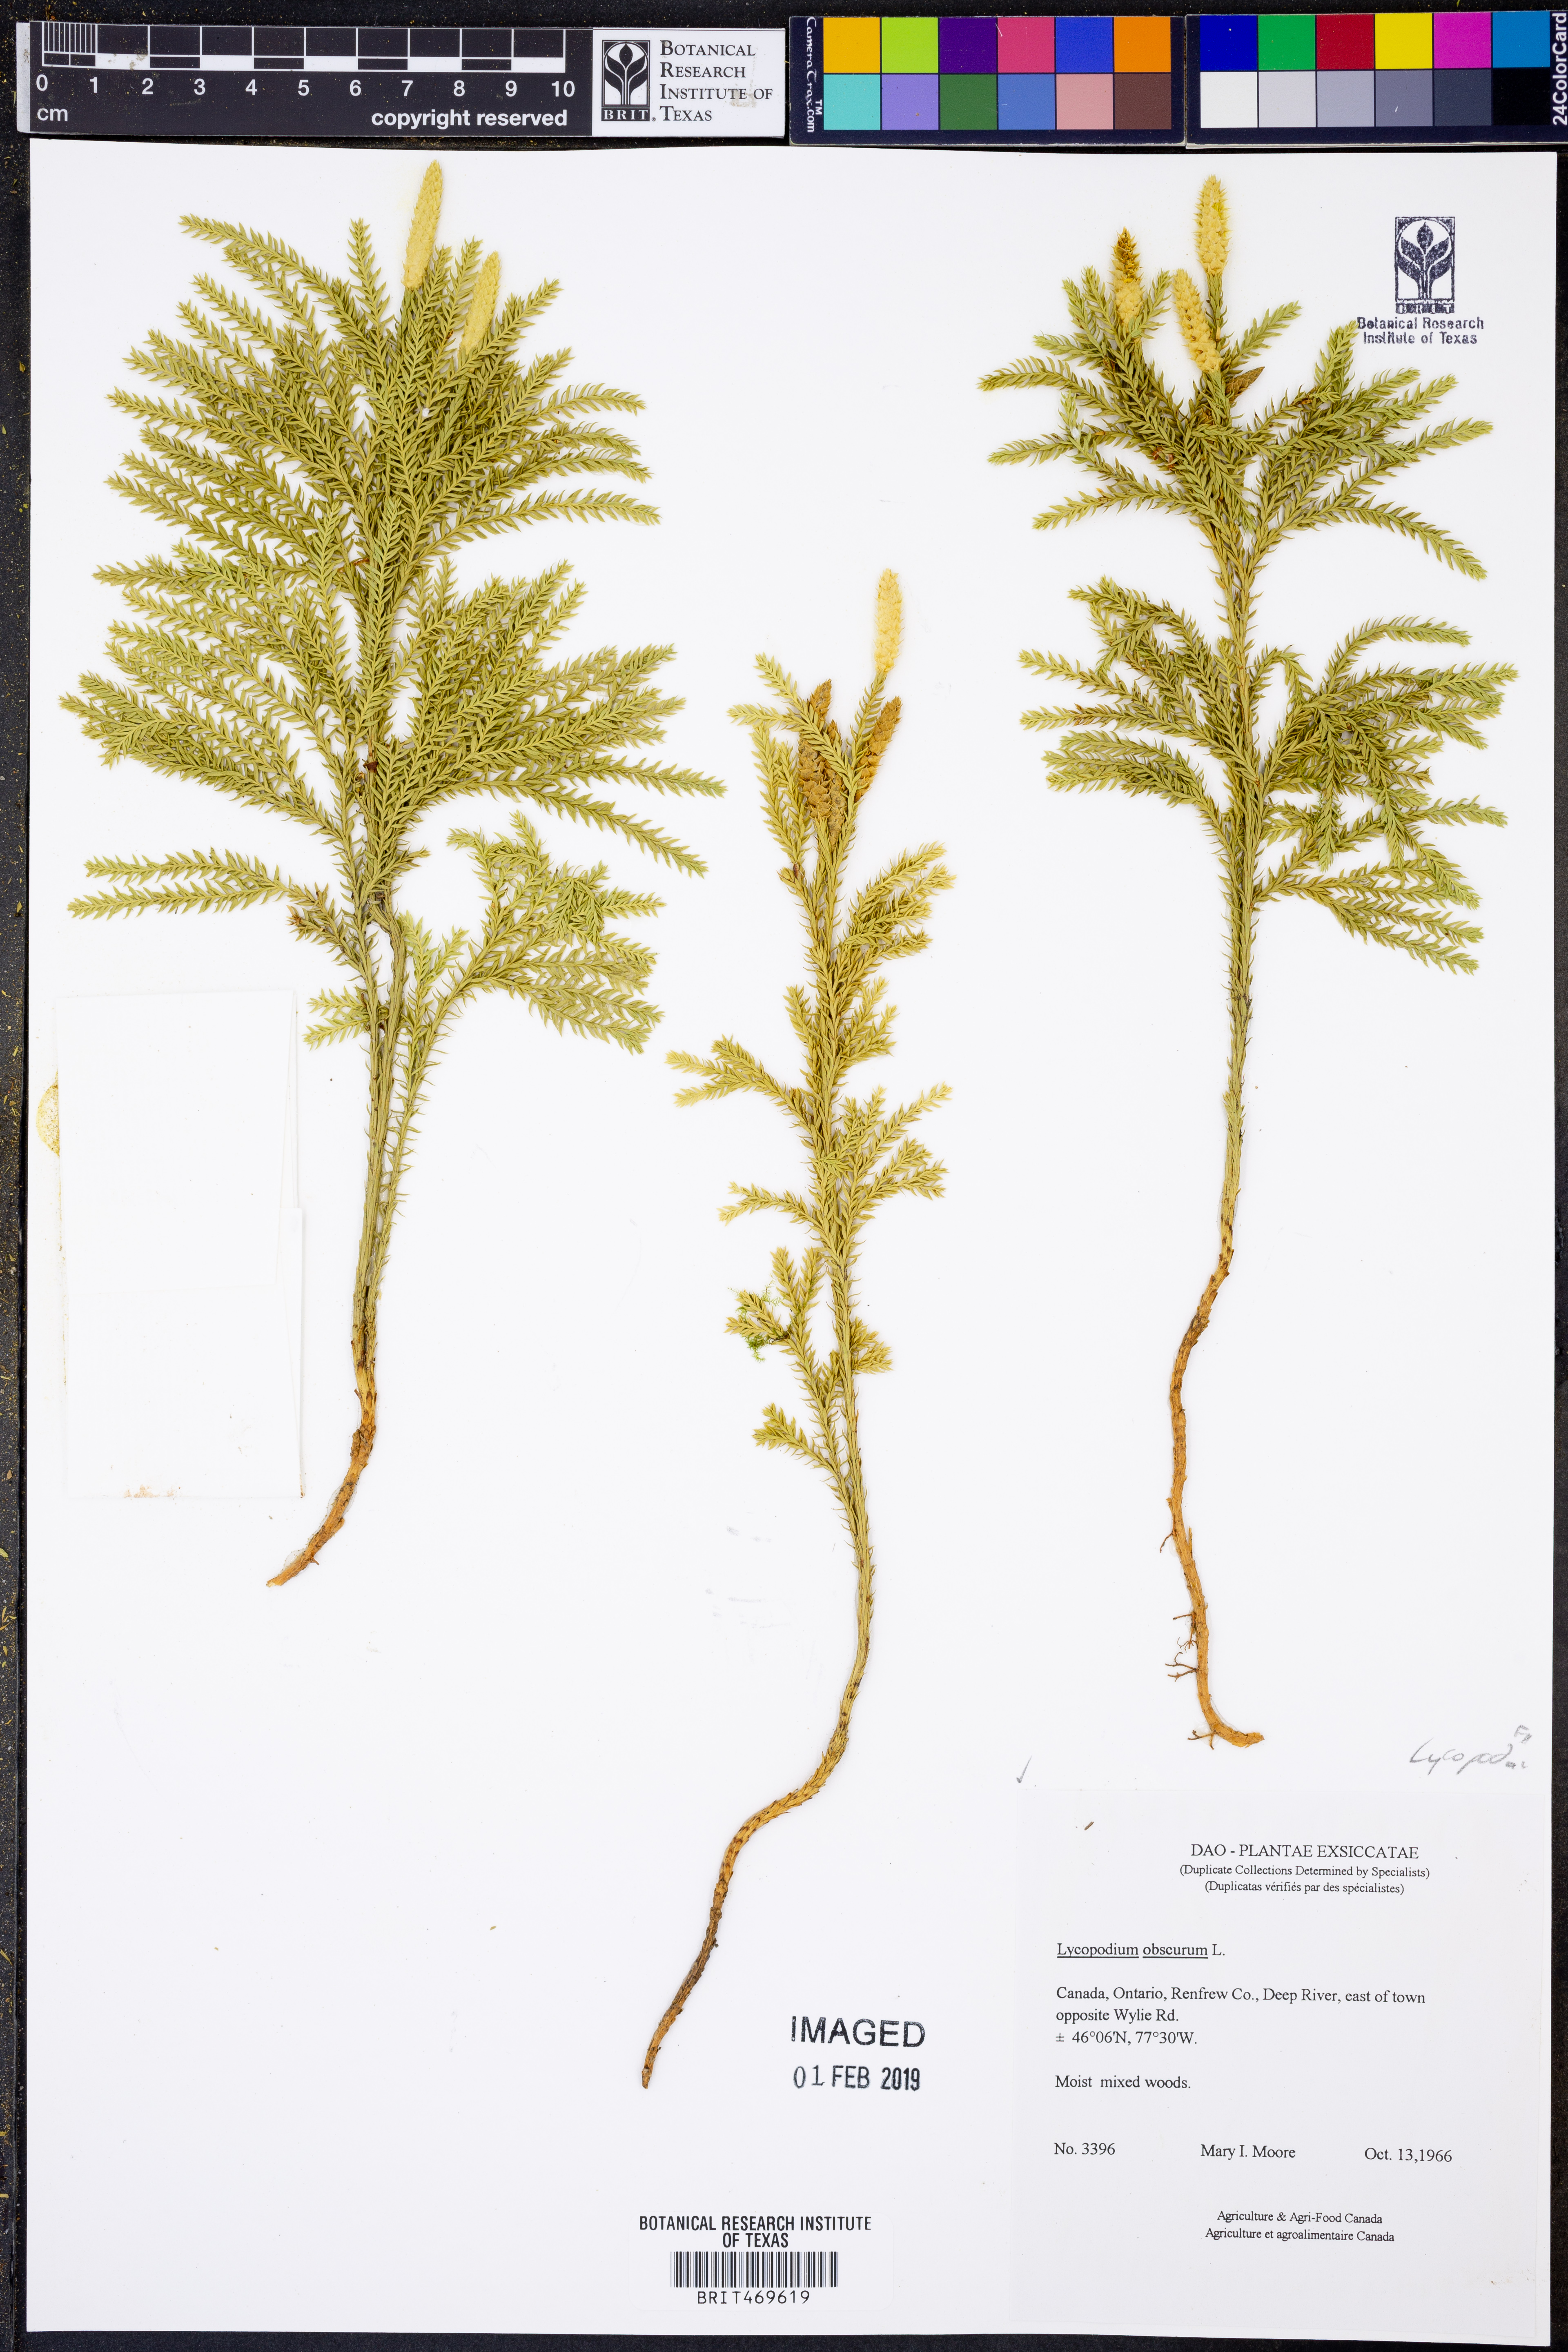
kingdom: Plantae
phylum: Tracheophyta
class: Lycopodiopsida
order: Lycopodiales
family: Lycopodiaceae
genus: Dendrolycopodium
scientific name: Dendrolycopodium obscurum
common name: Common ground-pine
